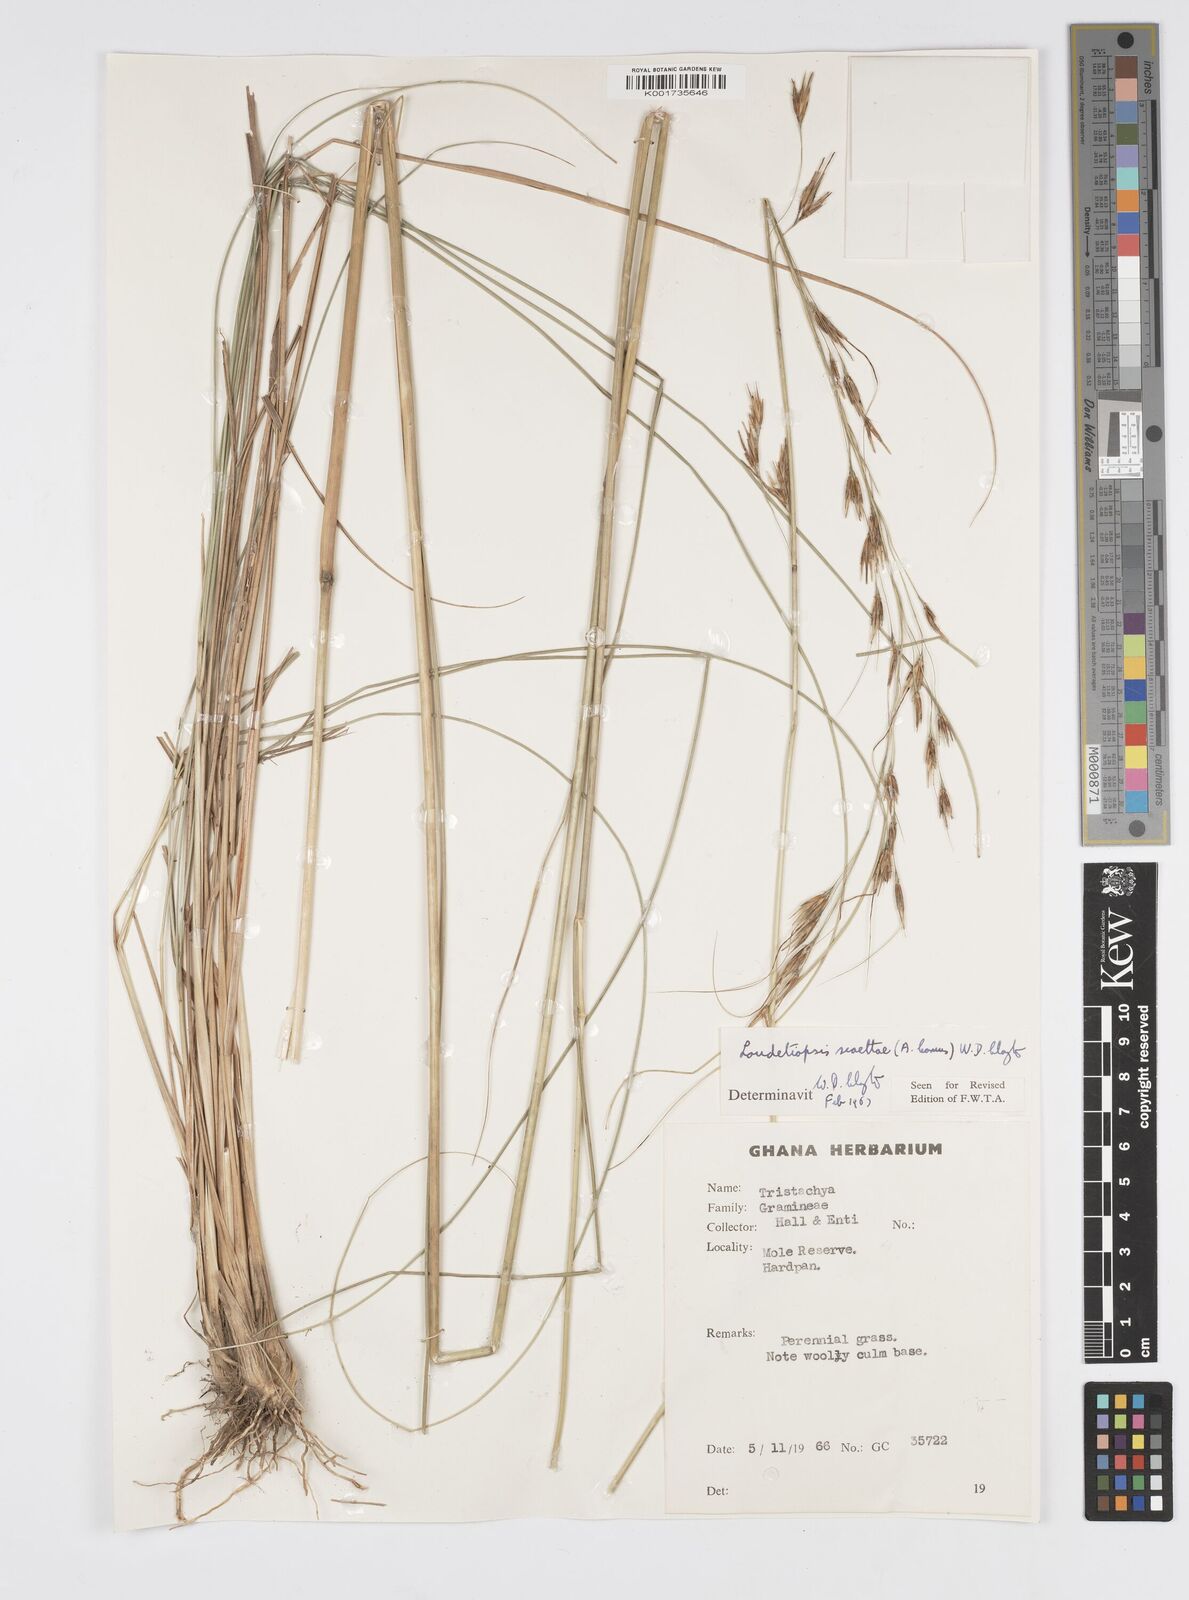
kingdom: Plantae
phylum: Tracheophyta
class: Liliopsida
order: Poales
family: Poaceae
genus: Loudetiopsis
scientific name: Loudetiopsis scaettae
